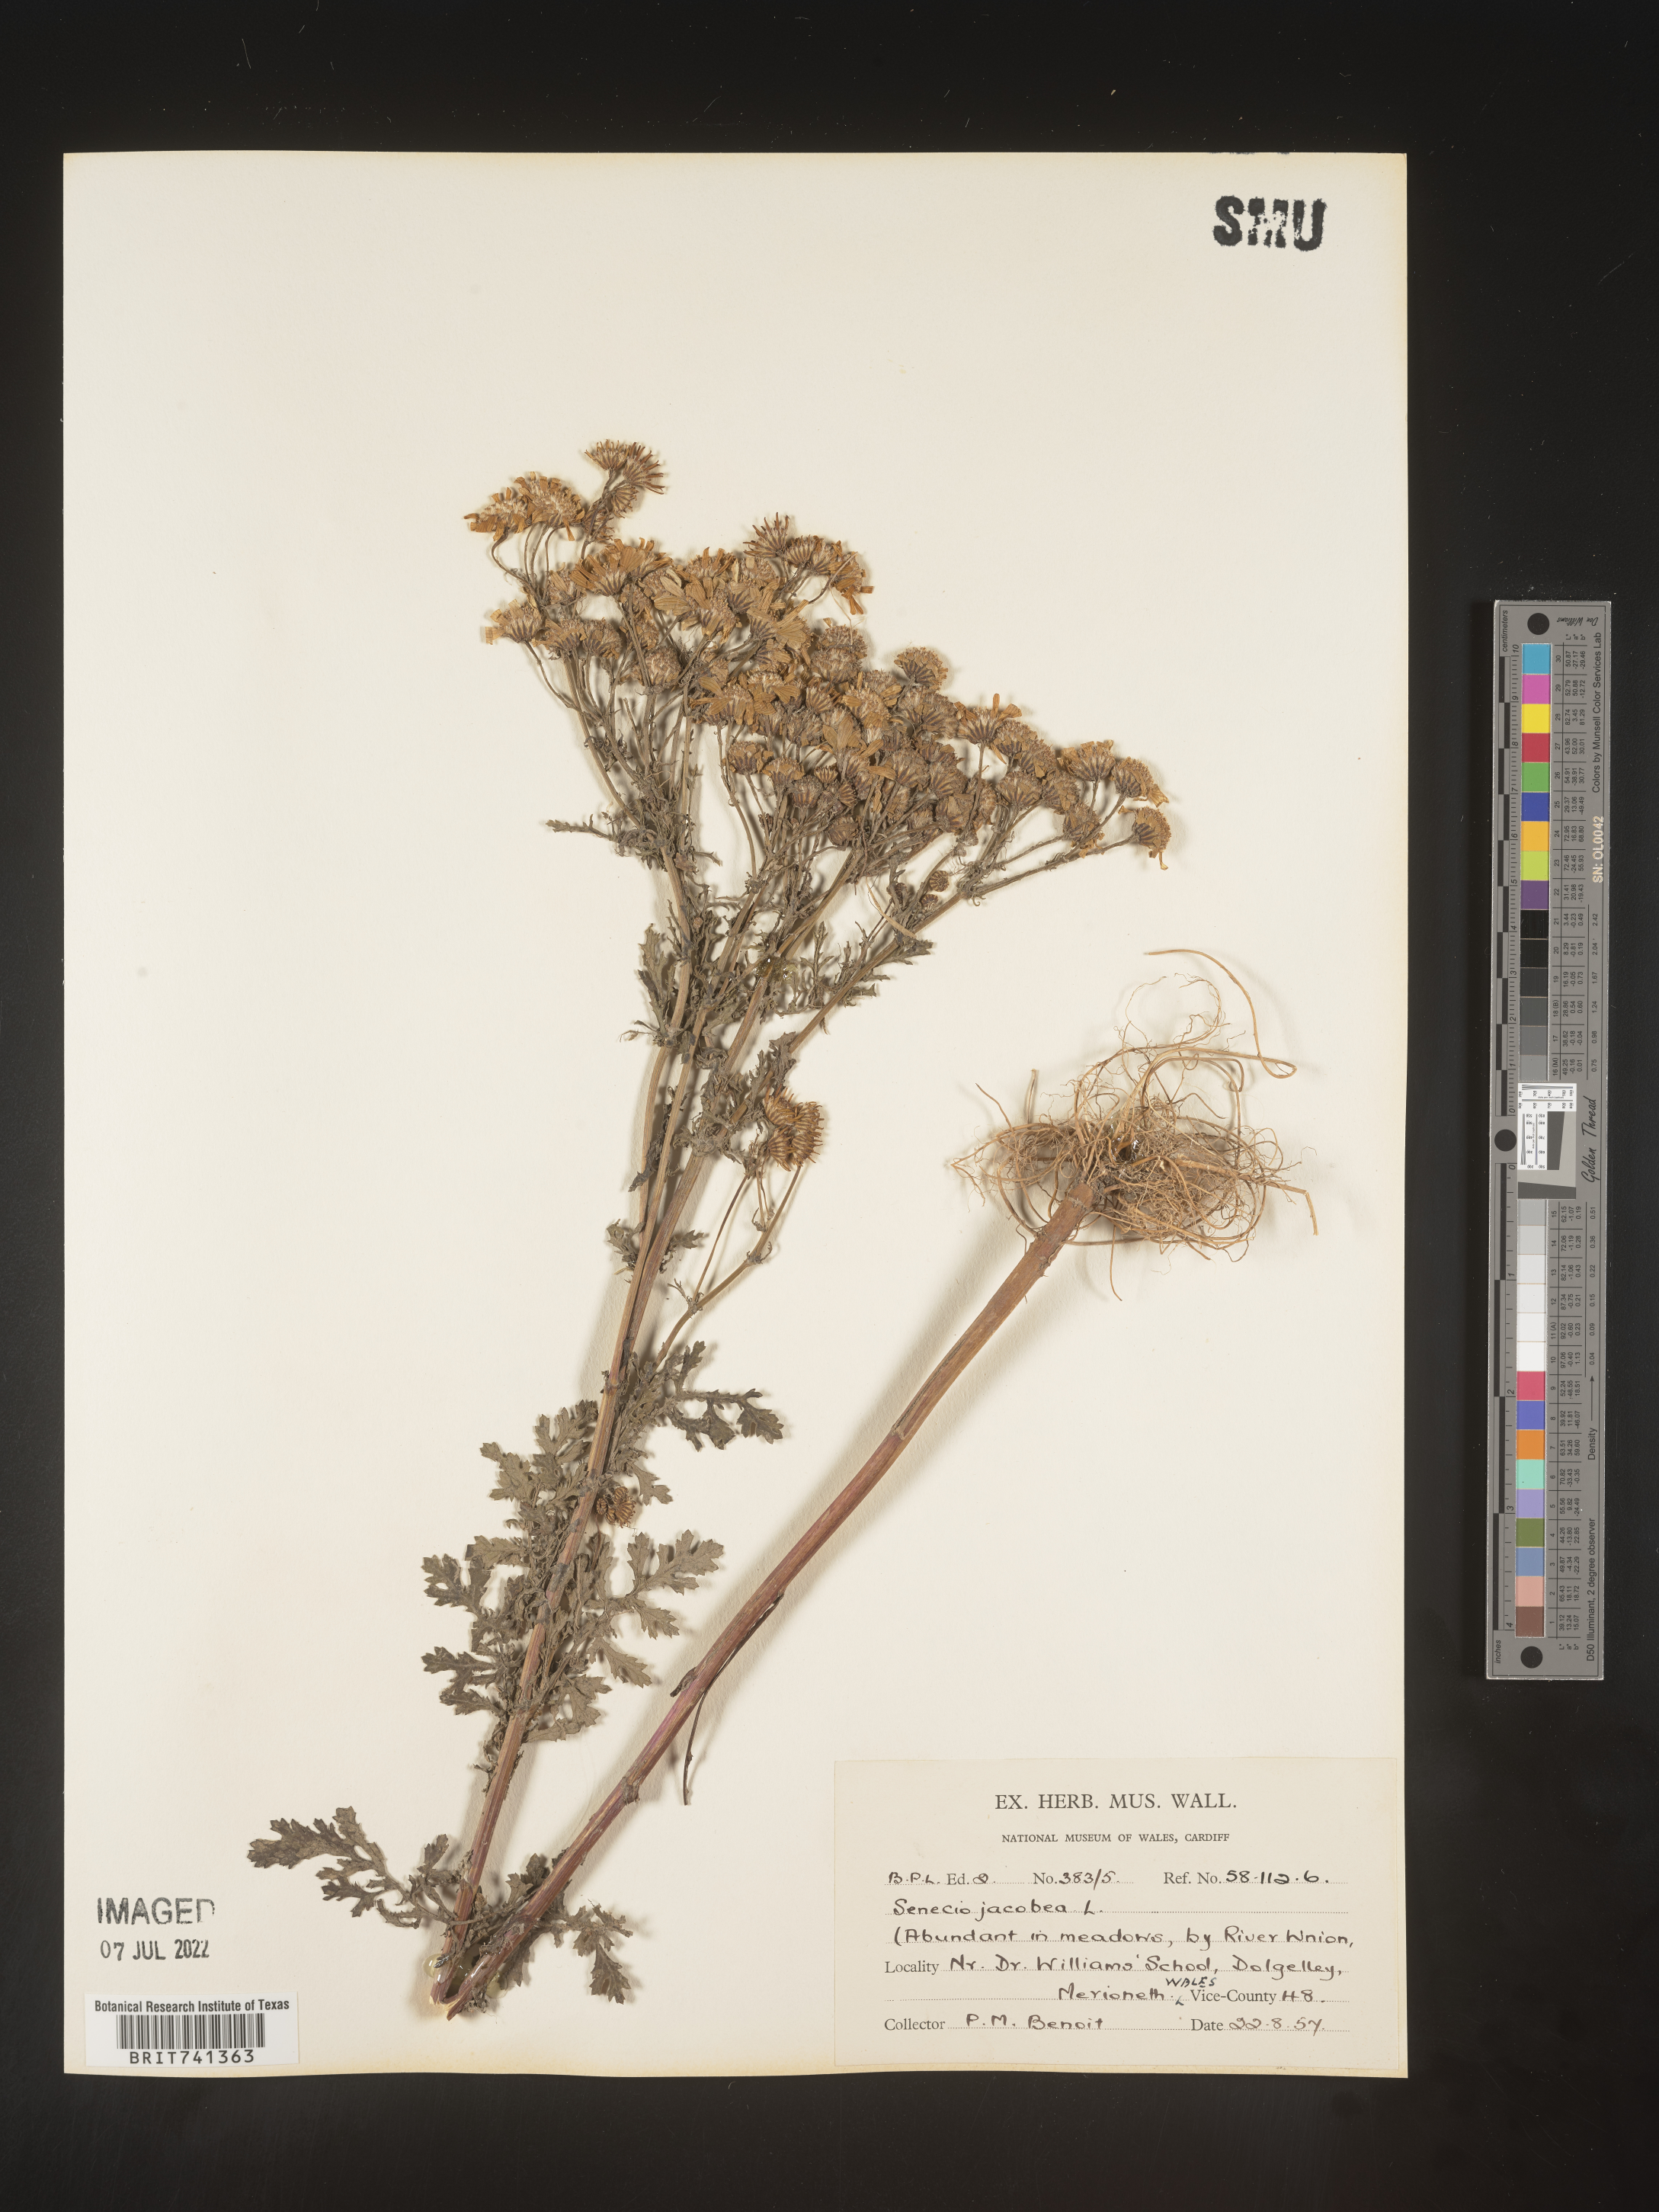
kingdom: Plantae
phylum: Tracheophyta
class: Magnoliopsida
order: Asterales
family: Asteraceae
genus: Senecio
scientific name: Senecio
